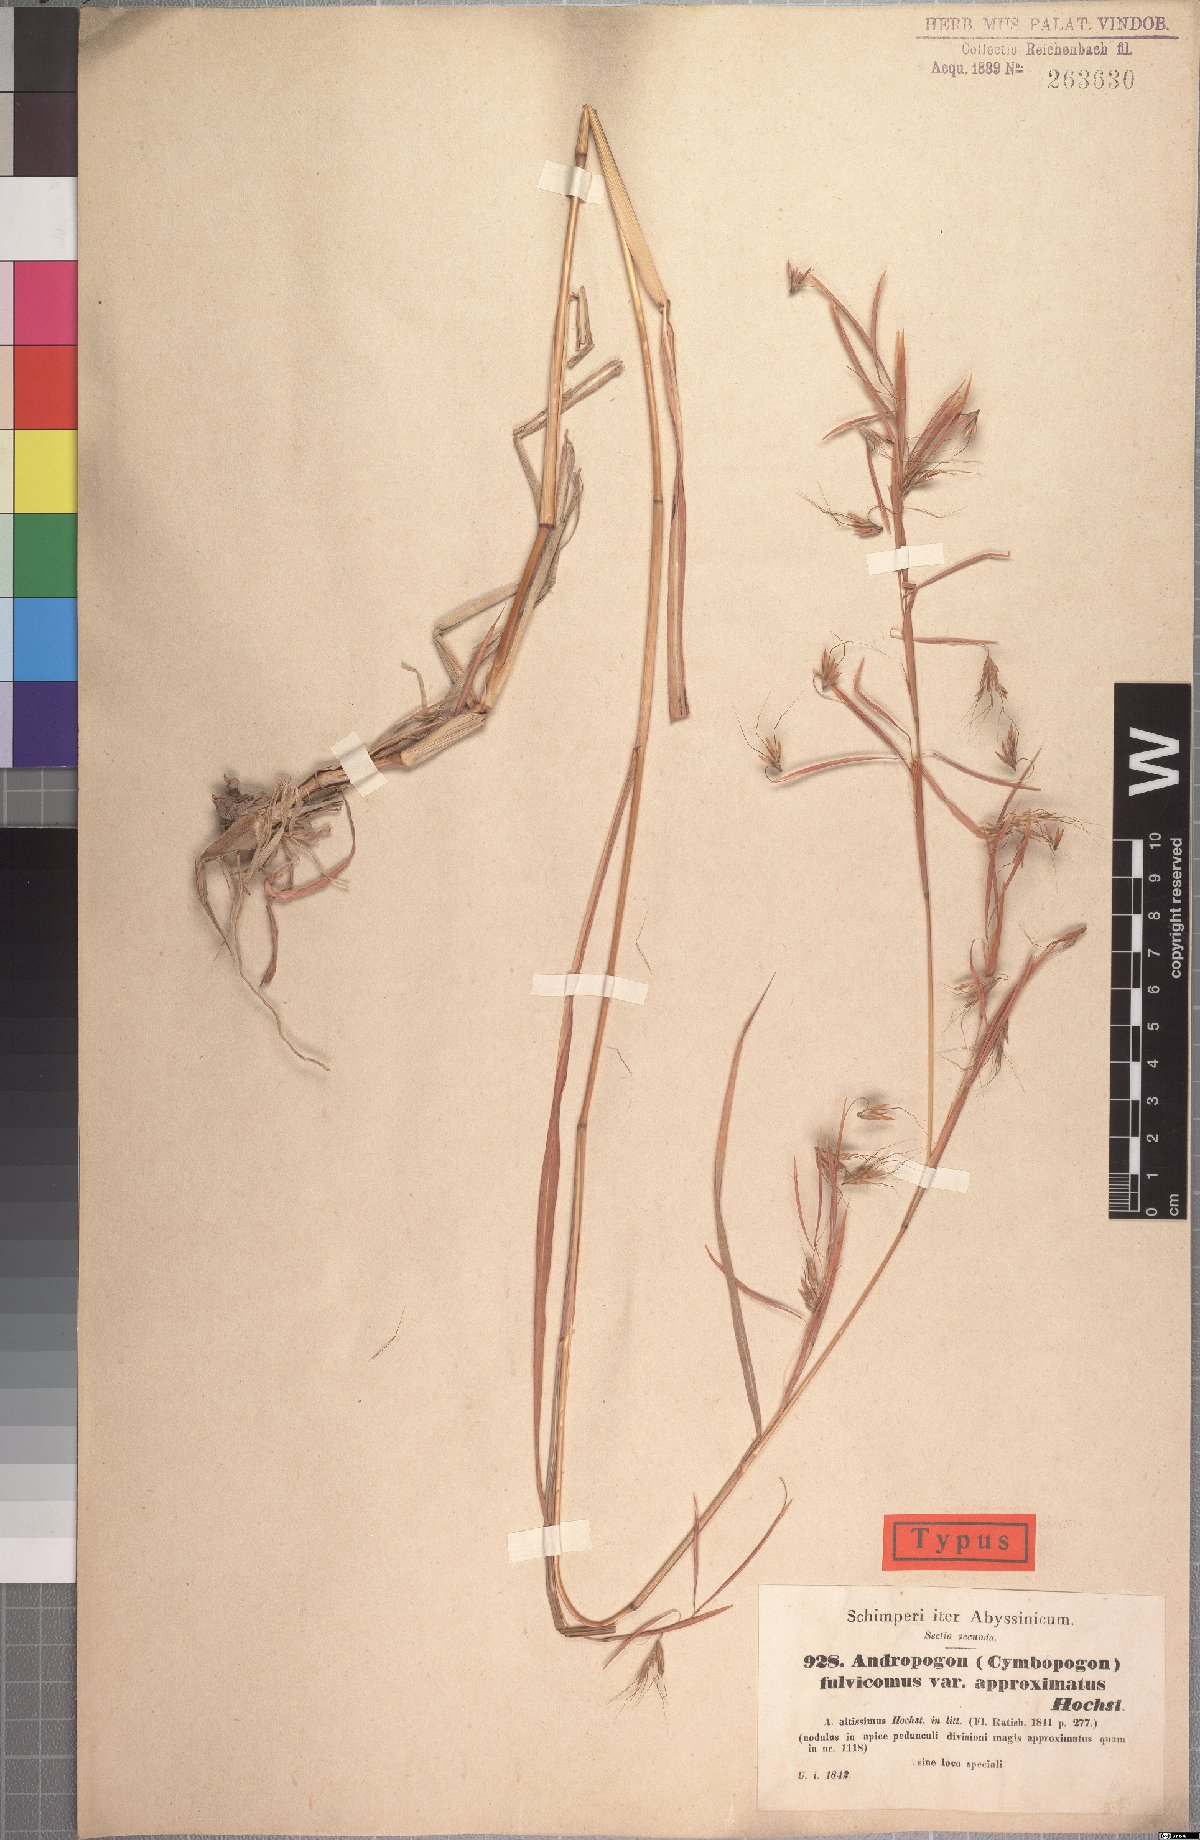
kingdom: Plantae
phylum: Tracheophyta
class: Liliopsida
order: Poales
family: Poaceae
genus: Hyparrhenia
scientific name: Hyparrhenia rufa
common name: Jaraguagrass
